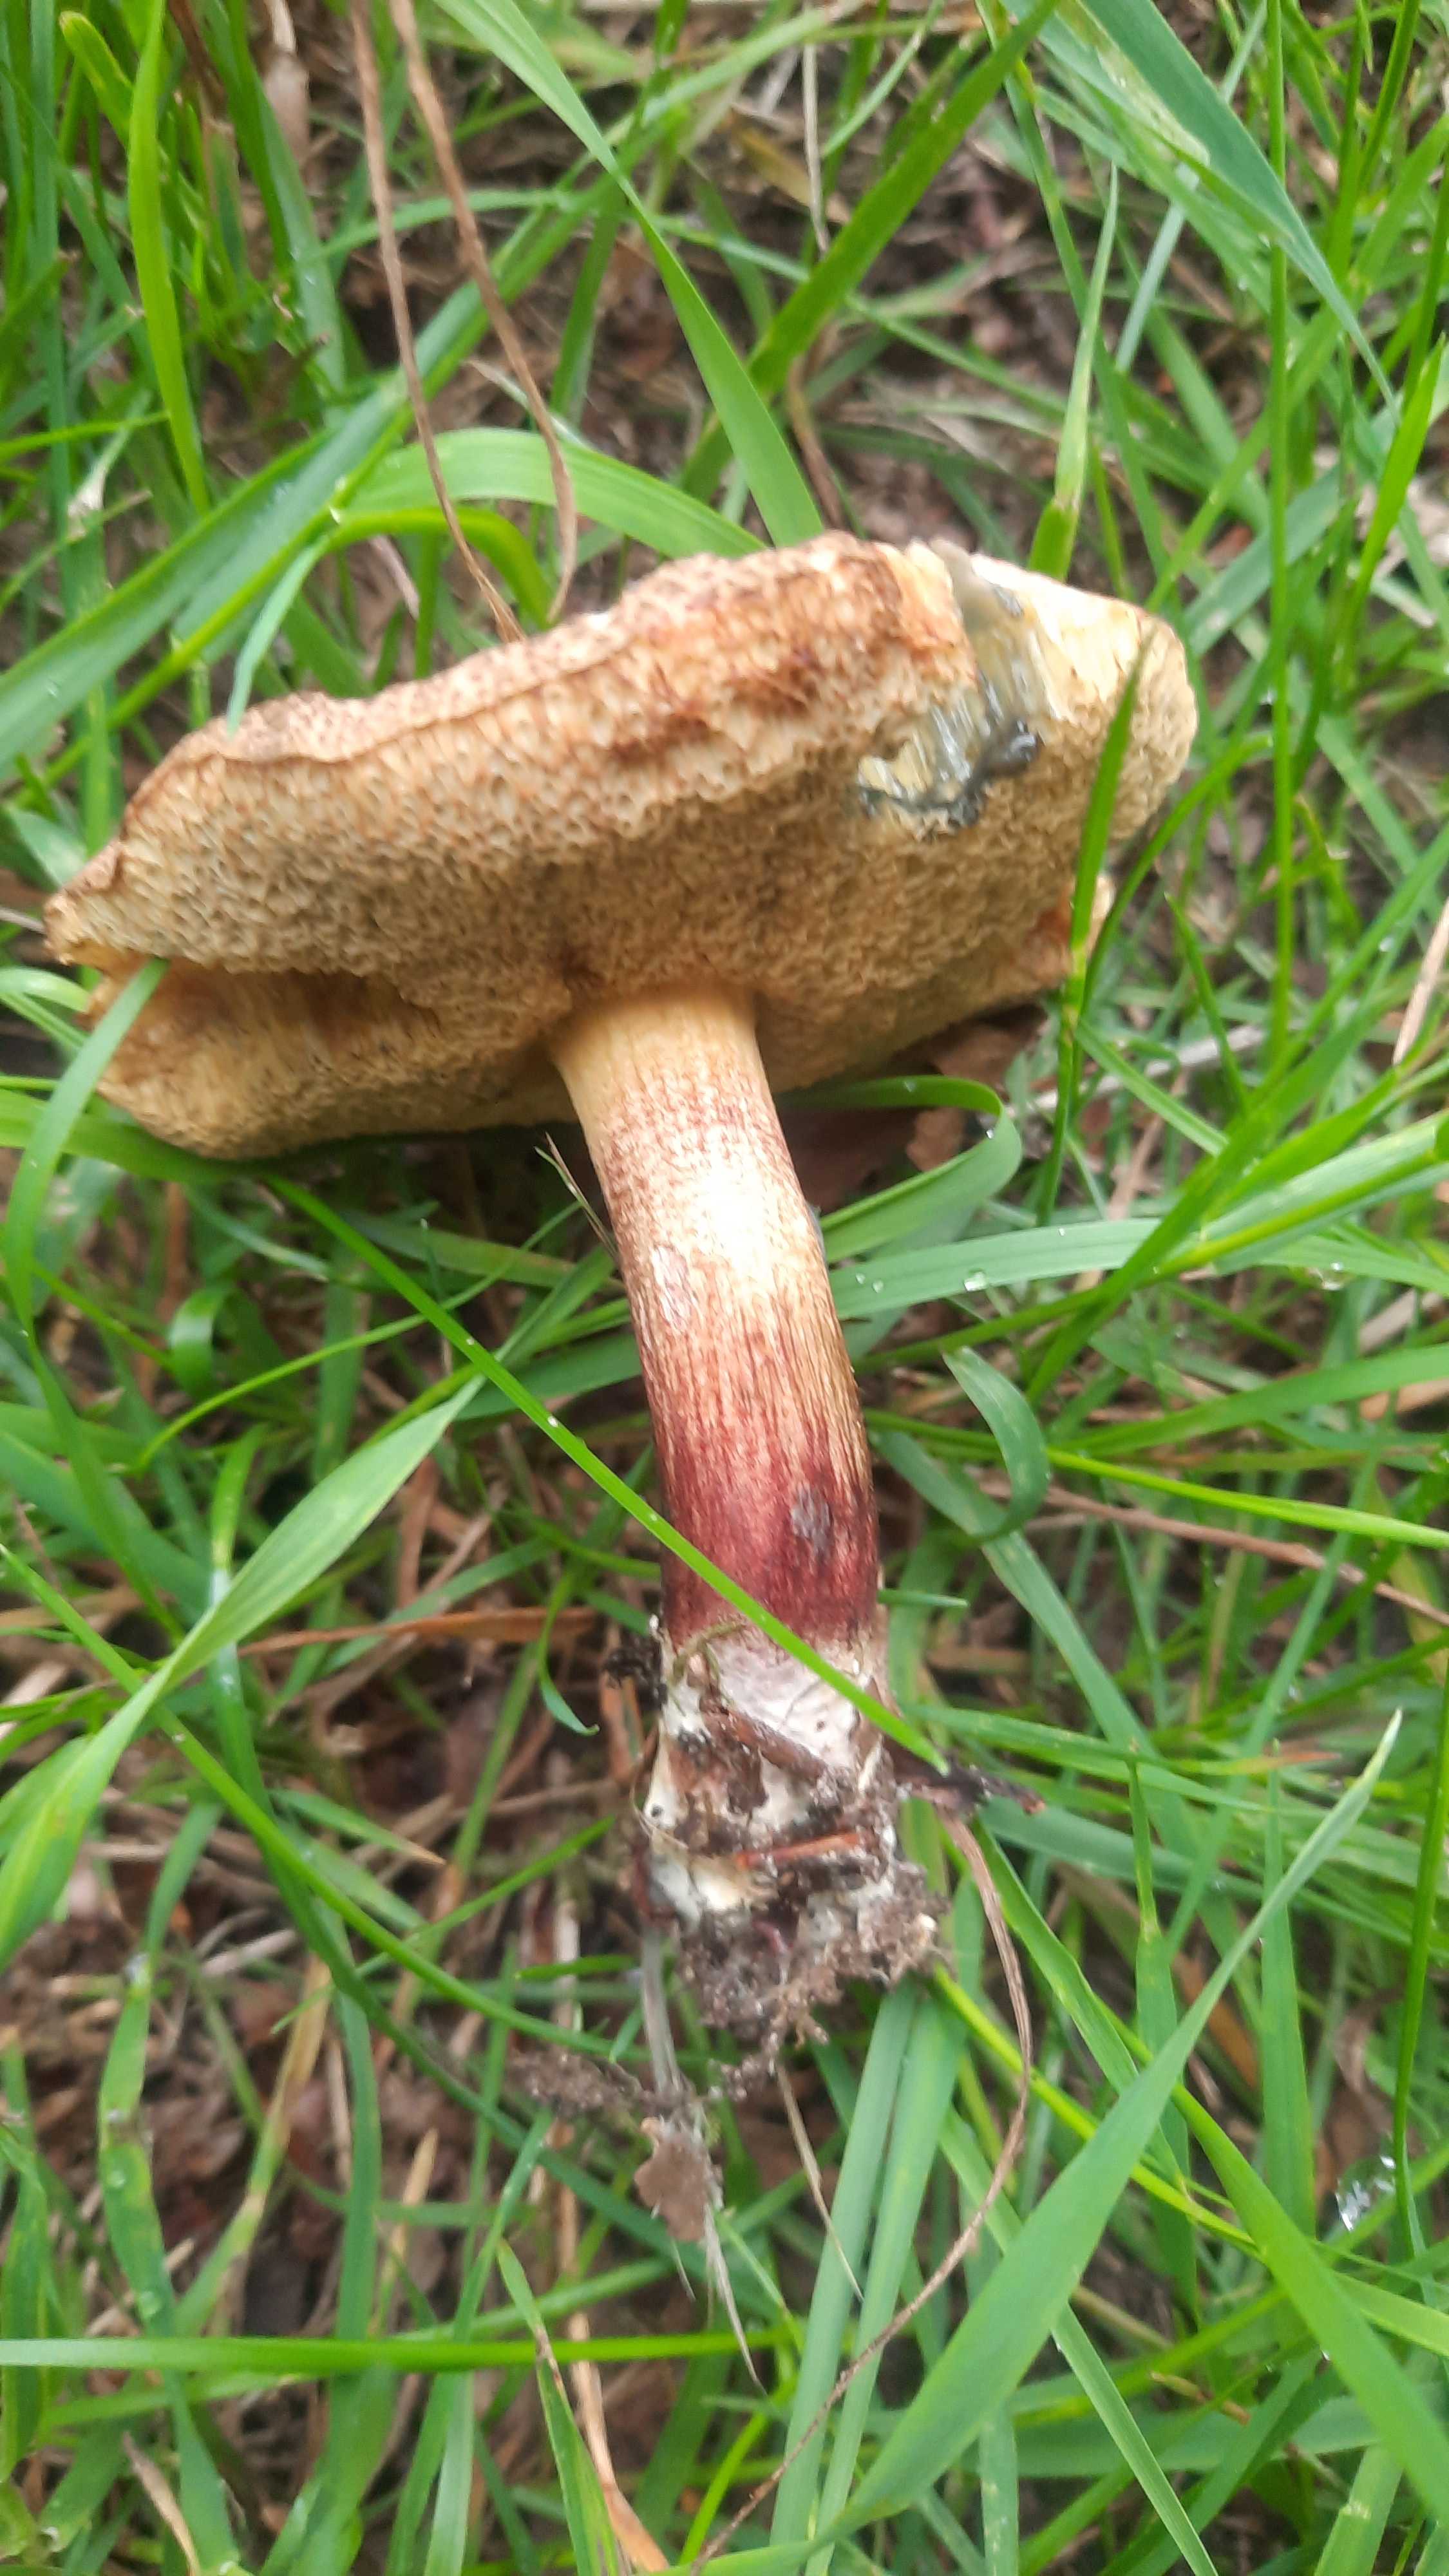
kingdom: Fungi
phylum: Basidiomycota
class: Agaricomycetes
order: Boletales
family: Boletaceae
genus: Xerocomellus
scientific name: Xerocomellus chrysenteron
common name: rødsprukken rørhat
